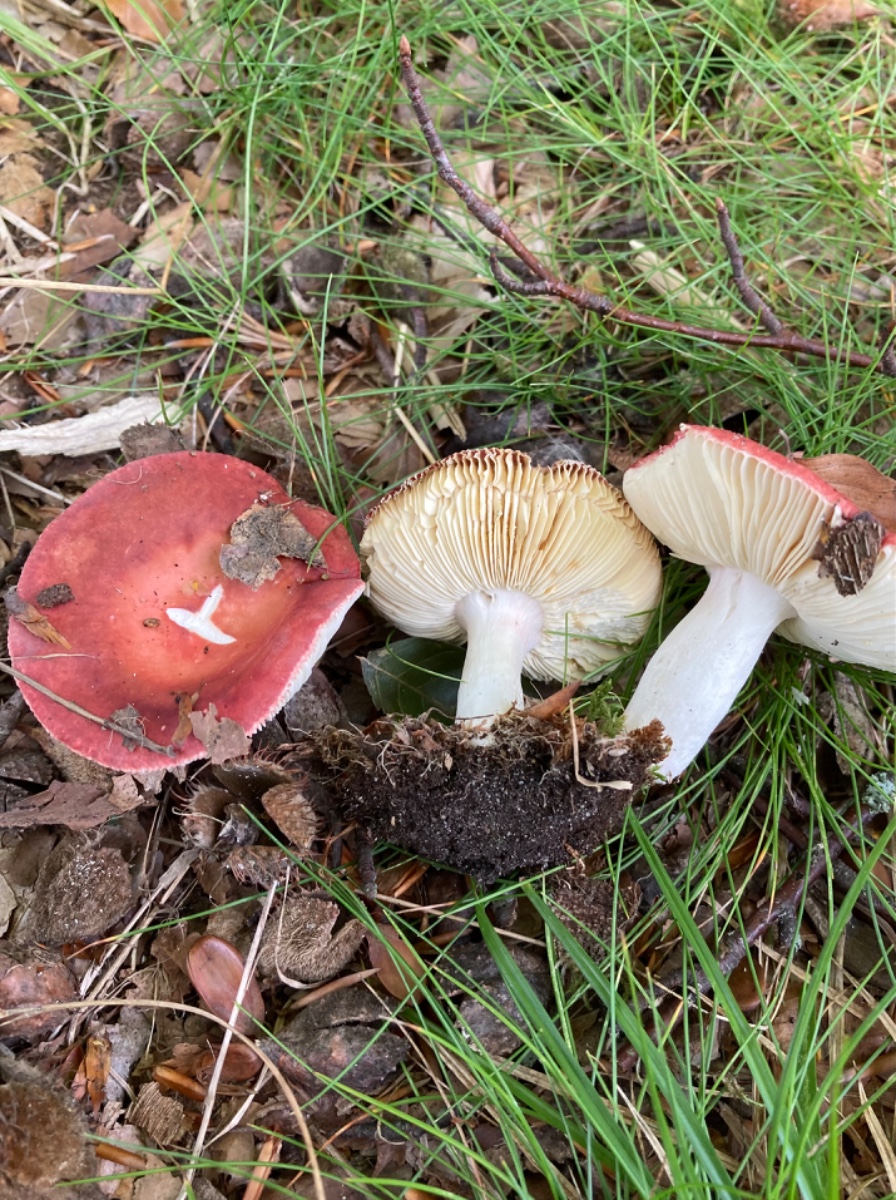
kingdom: Fungi
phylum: Basidiomycota
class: Agaricomycetes
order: Russulales
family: Russulaceae
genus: Russula
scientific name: Russula velenovskyi
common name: orangerød skørhat
